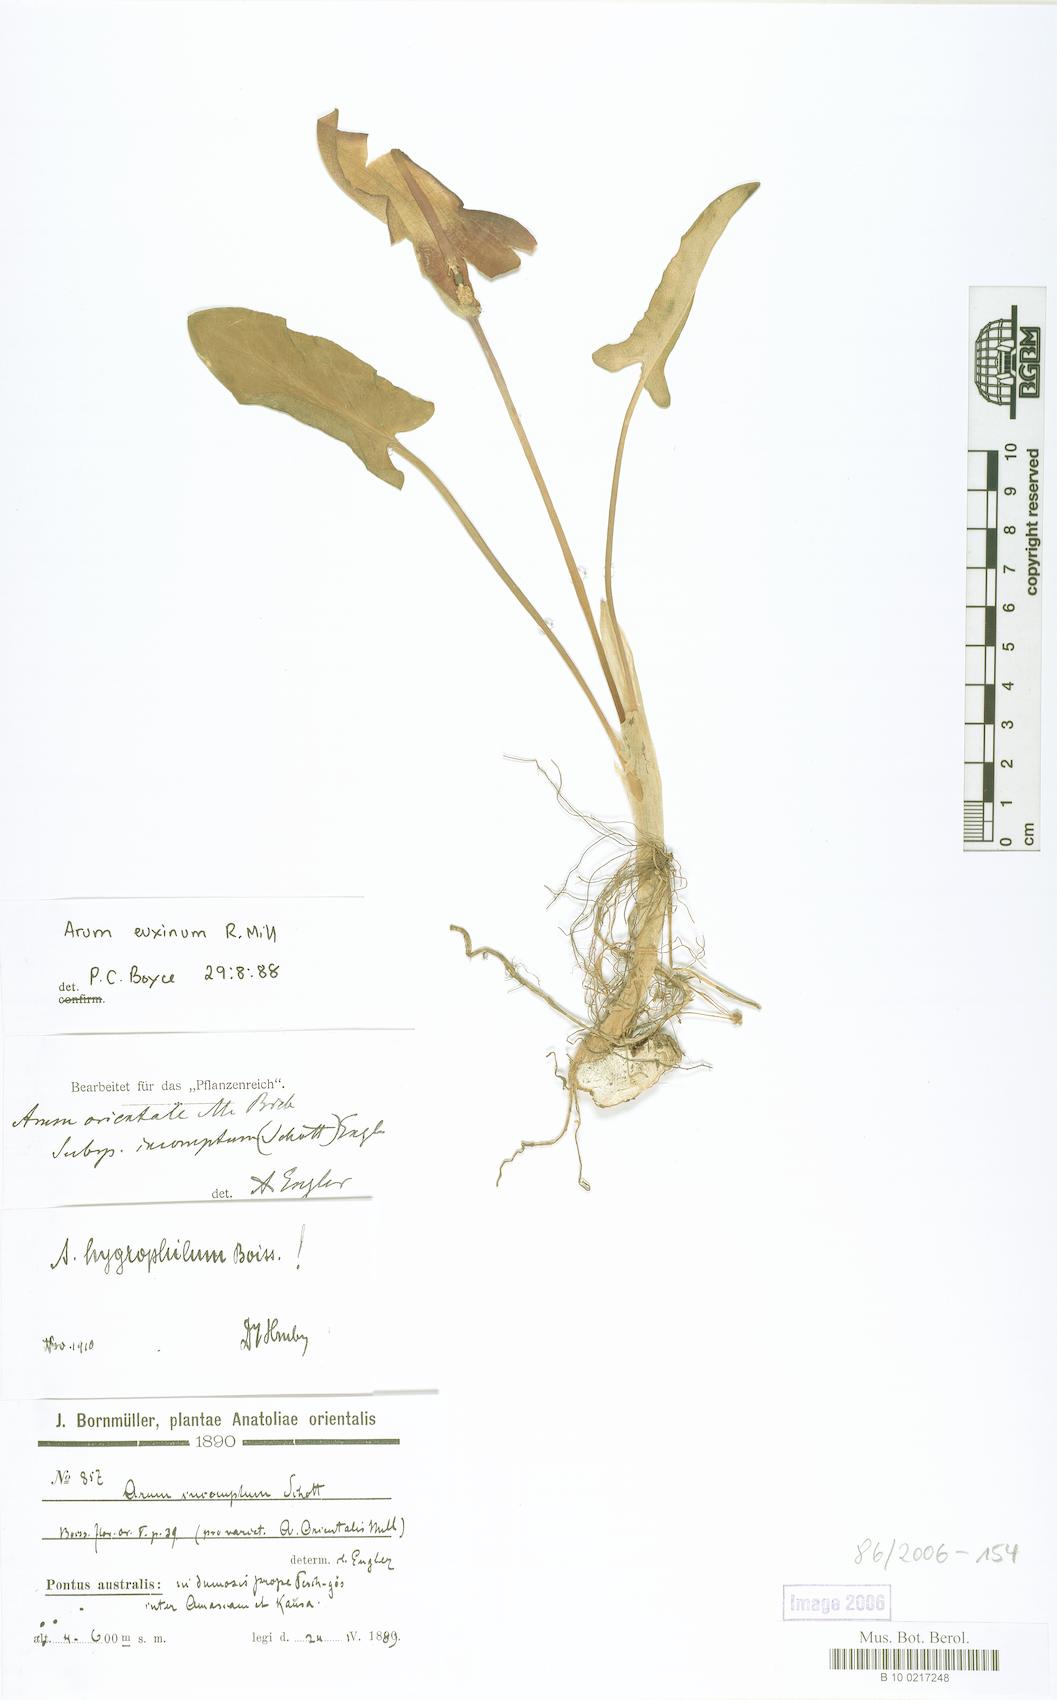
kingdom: Plantae
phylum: Tracheophyta
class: Liliopsida
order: Alismatales
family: Araceae
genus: Arum
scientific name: Arum euxinum
